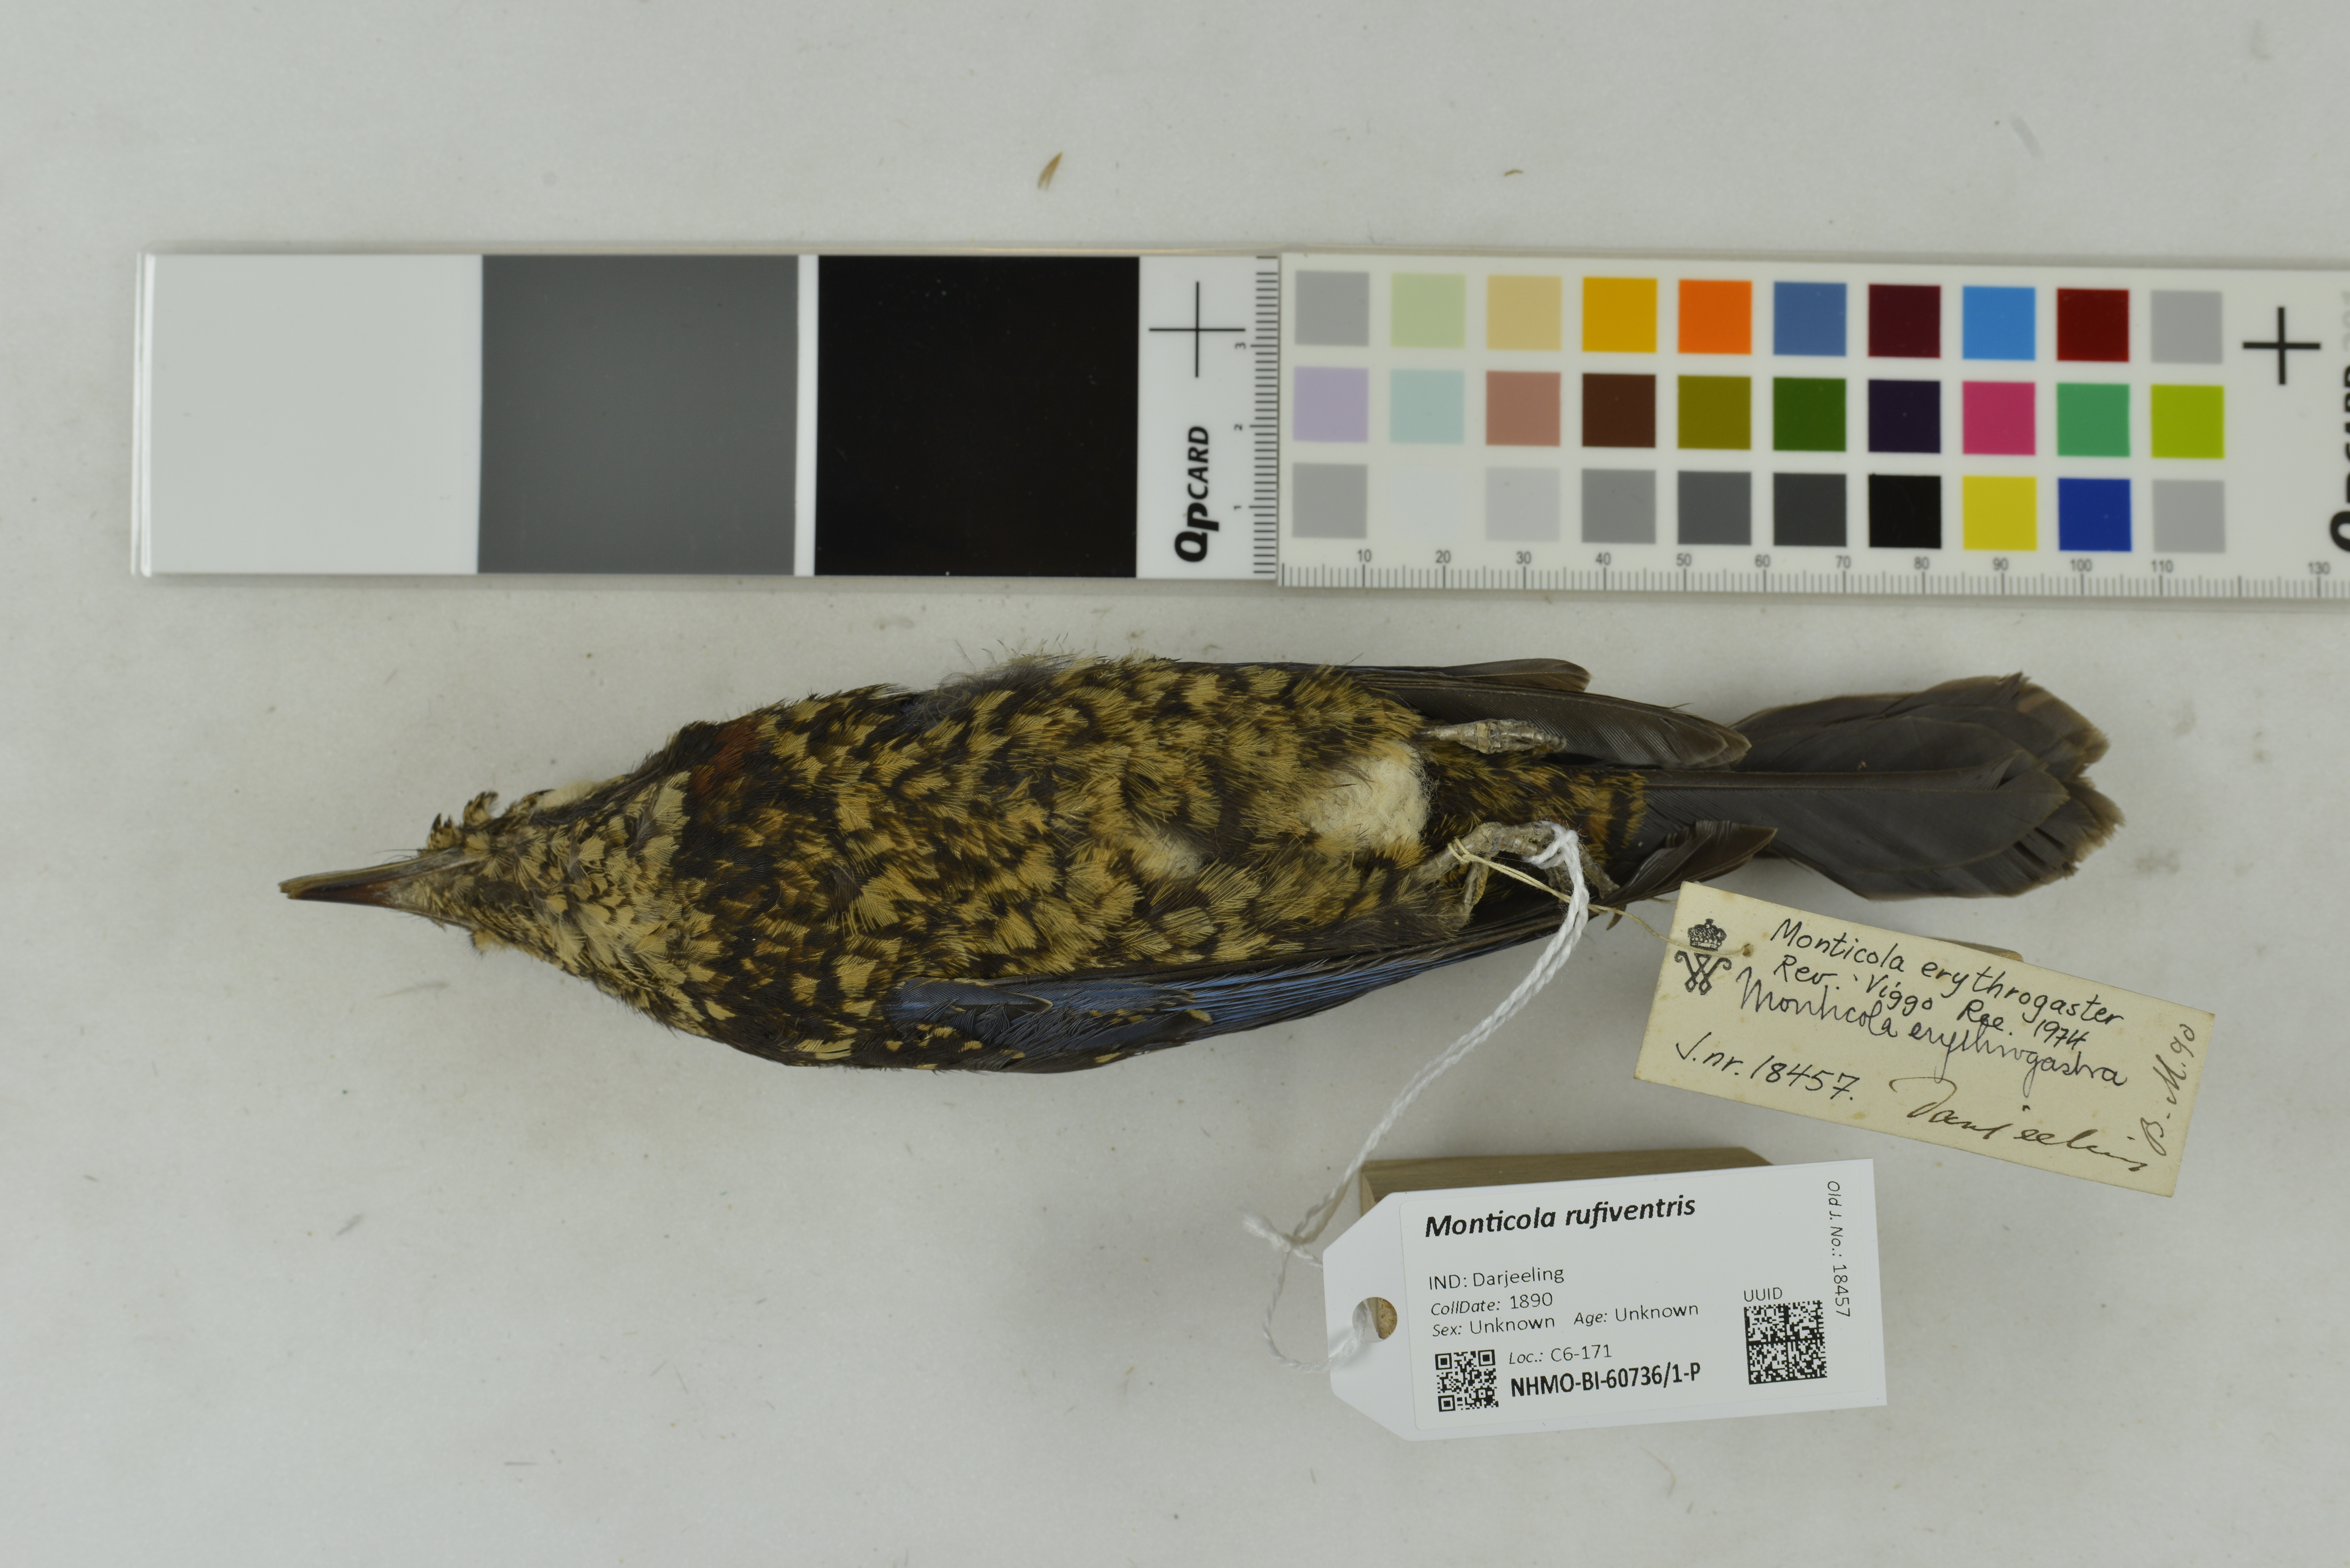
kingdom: Animalia
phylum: Chordata
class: Aves
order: Passeriformes
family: Muscicapidae
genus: Monticola
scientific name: Monticola rufiventris
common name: Chestnut-bellied rock thrush
